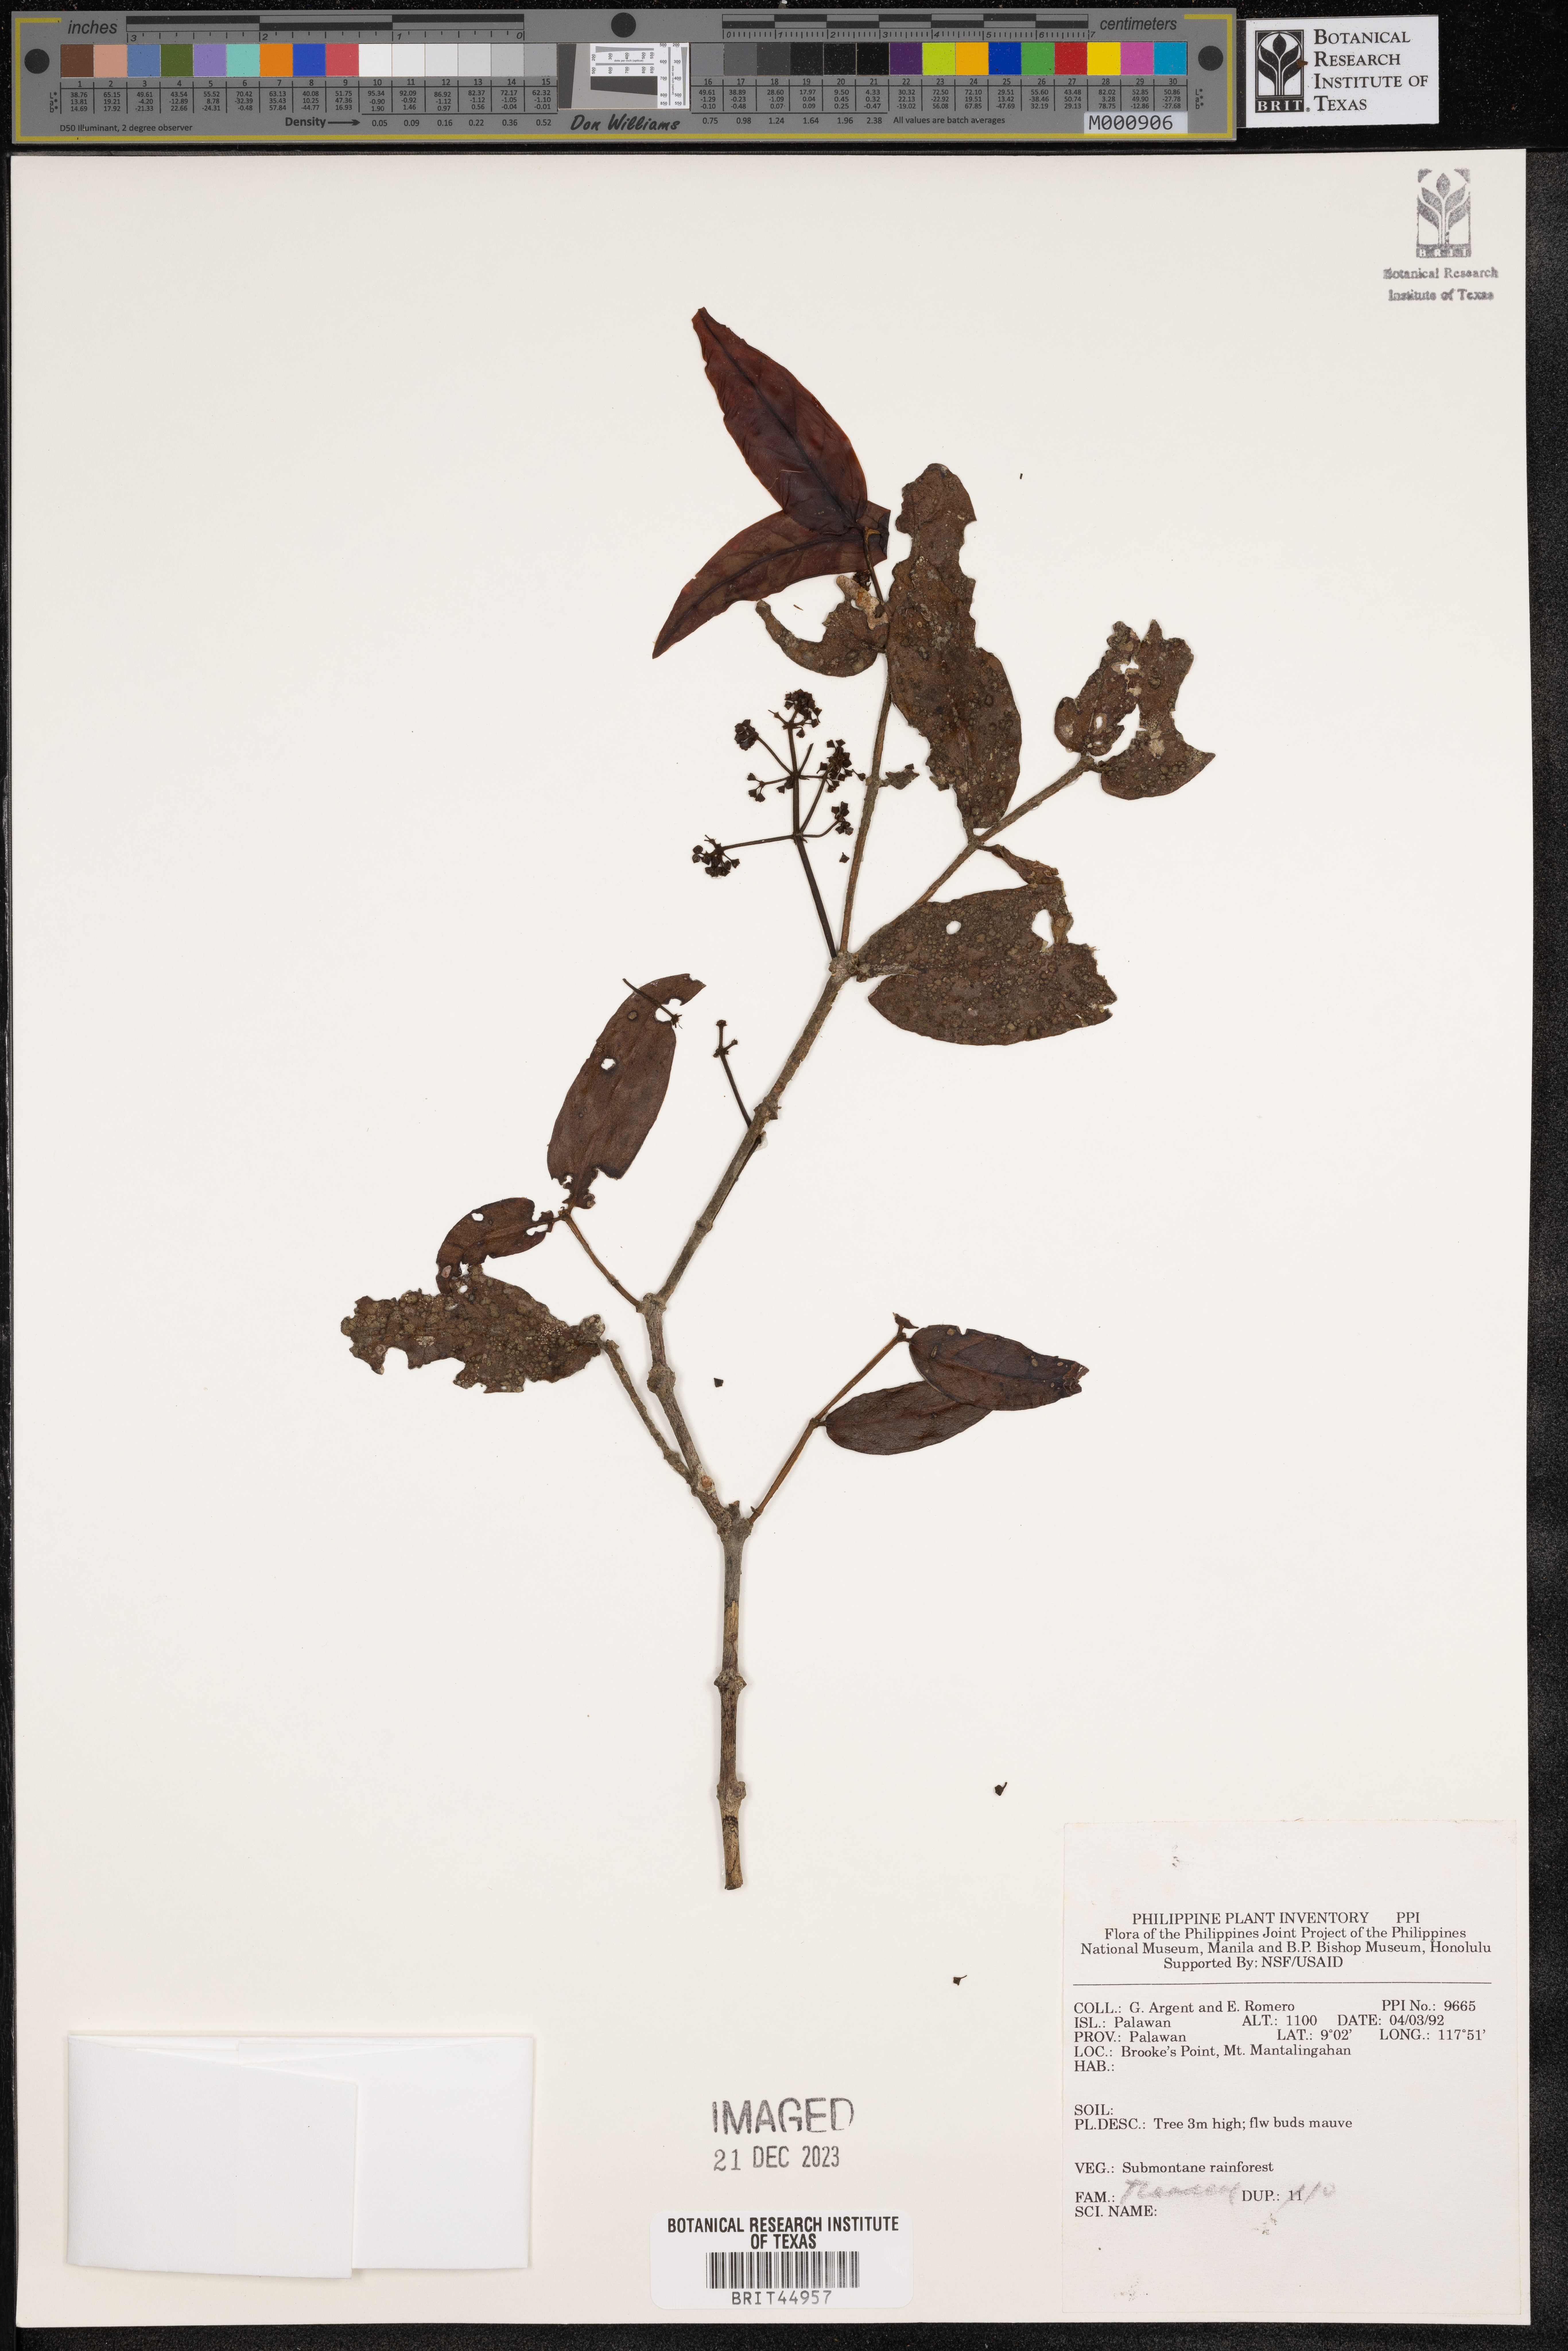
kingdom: Plantae
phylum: Tracheophyta
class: Magnoliopsida
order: Ericales
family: Theaceae
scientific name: Theaceae
